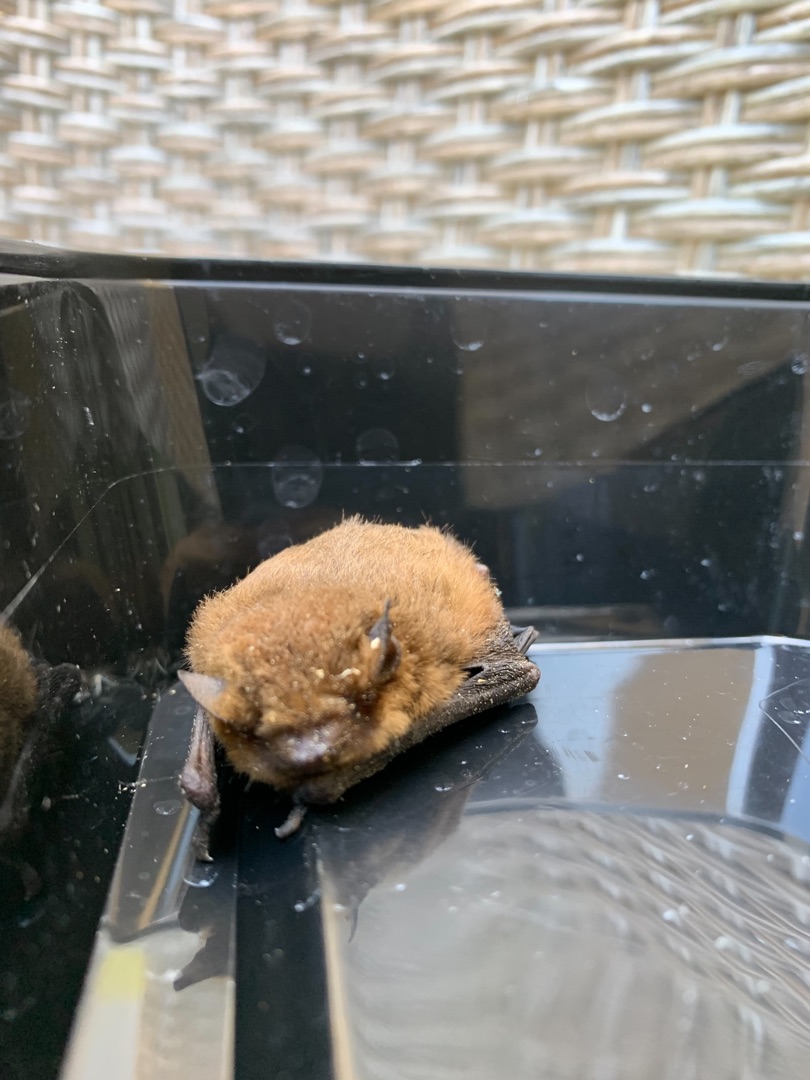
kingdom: Animalia
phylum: Chordata
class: Mammalia
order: Chiroptera
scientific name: Chiroptera
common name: Flagermus
